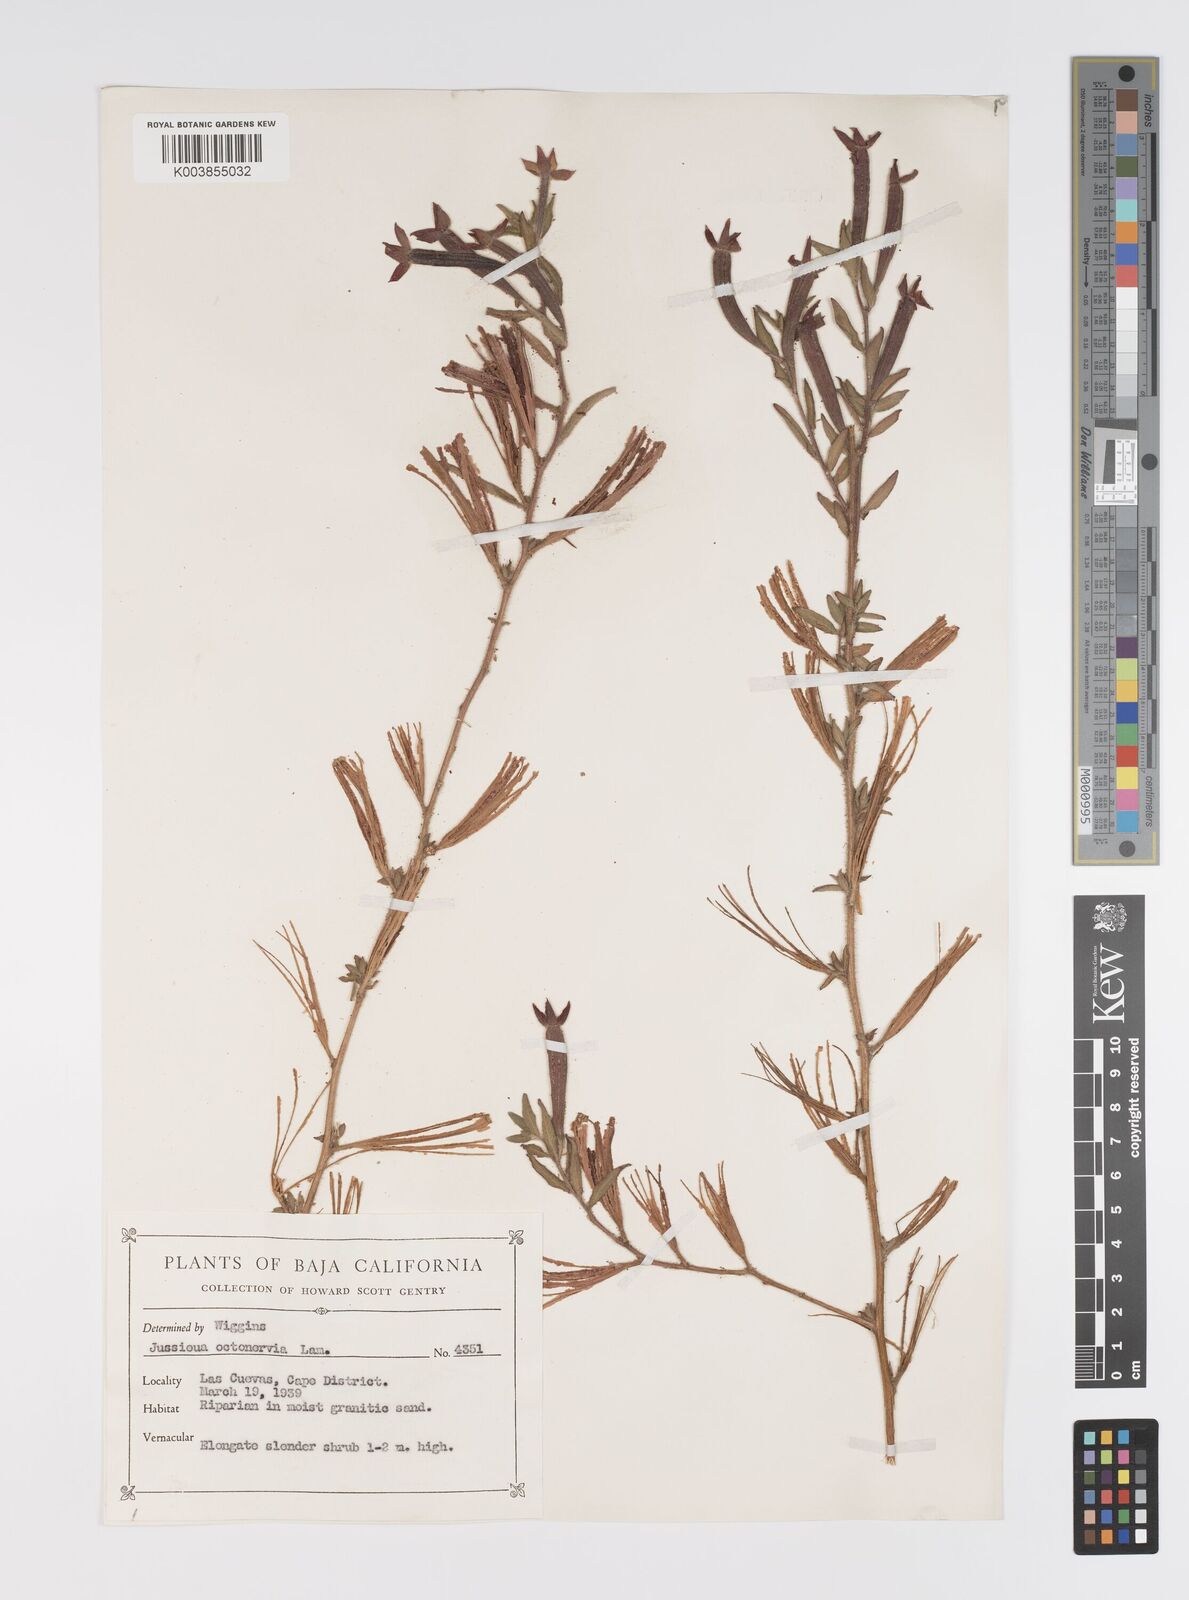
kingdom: Plantae
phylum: Tracheophyta
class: Magnoliopsida
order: Myrtales
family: Onagraceae
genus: Ludwigia
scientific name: Ludwigia octovalvis
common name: Water-primrose
